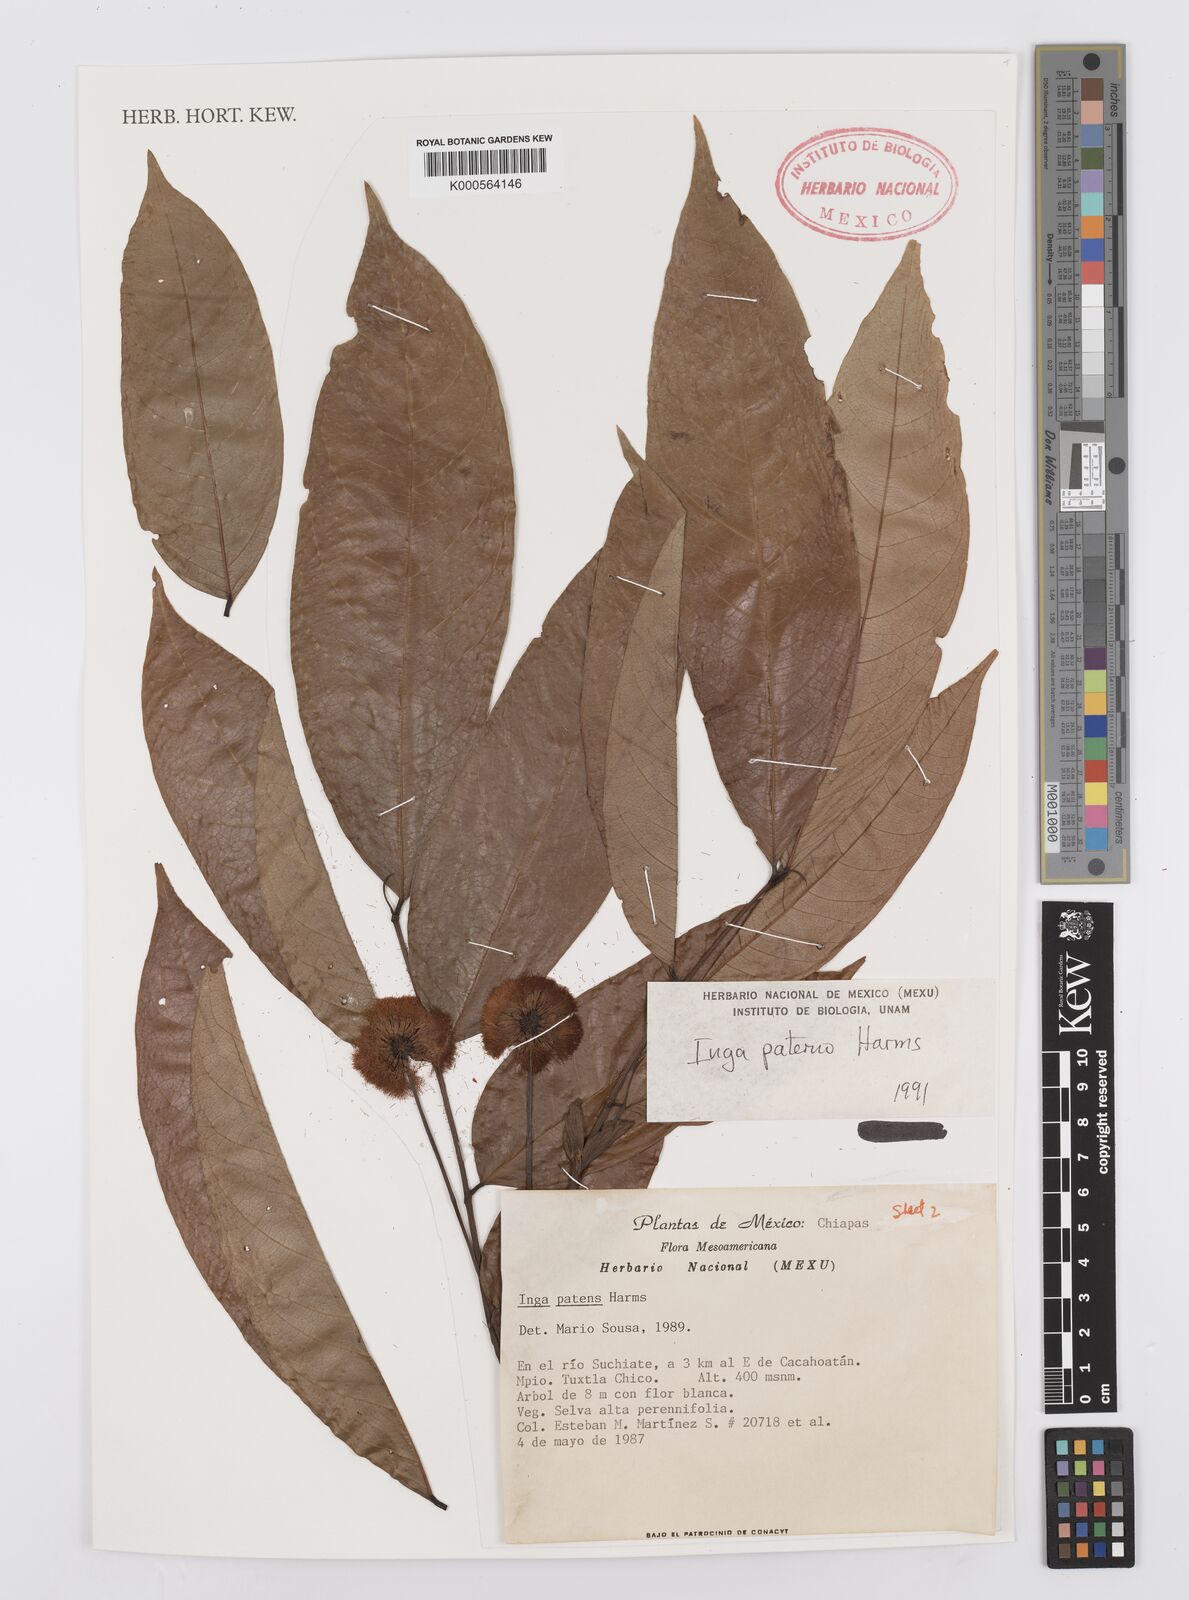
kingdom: Plantae
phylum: Tracheophyta
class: Magnoliopsida
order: Fabales
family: Fabaceae
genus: Inga
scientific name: Inga inicuil
